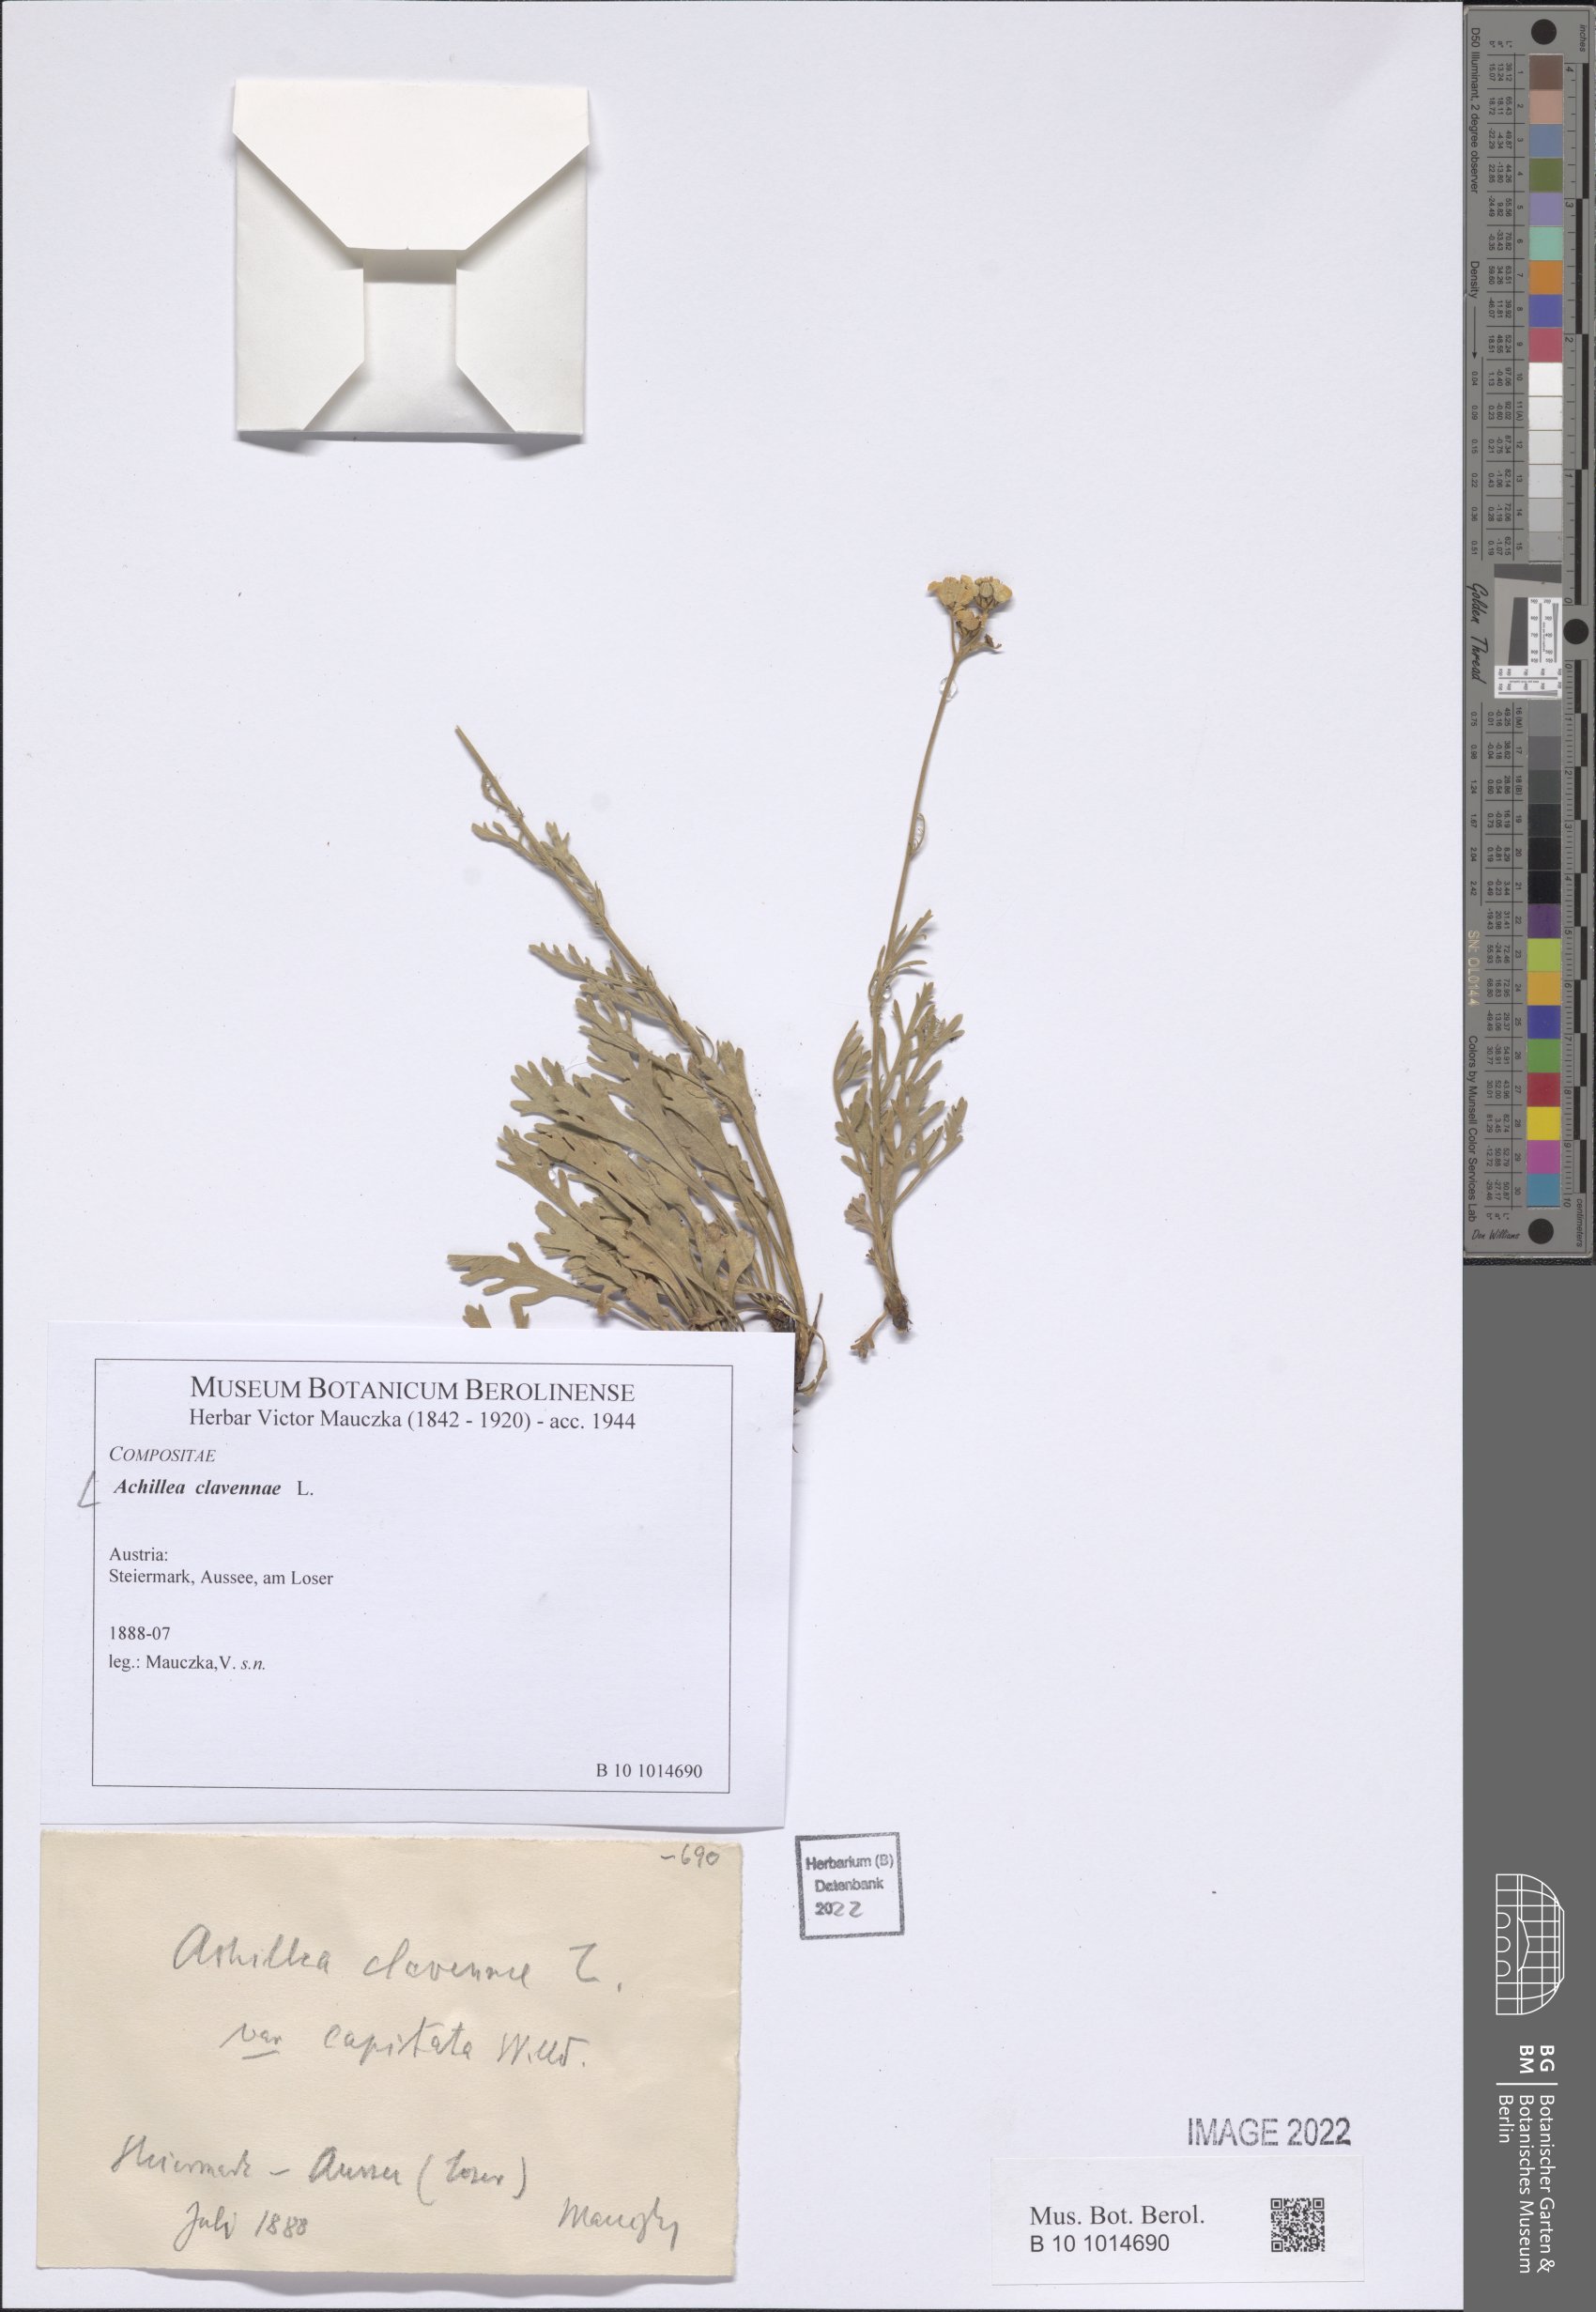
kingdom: Plantae
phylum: Tracheophyta
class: Magnoliopsida
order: Asterales
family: Asteraceae
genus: Achillea
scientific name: Achillea clavennae
